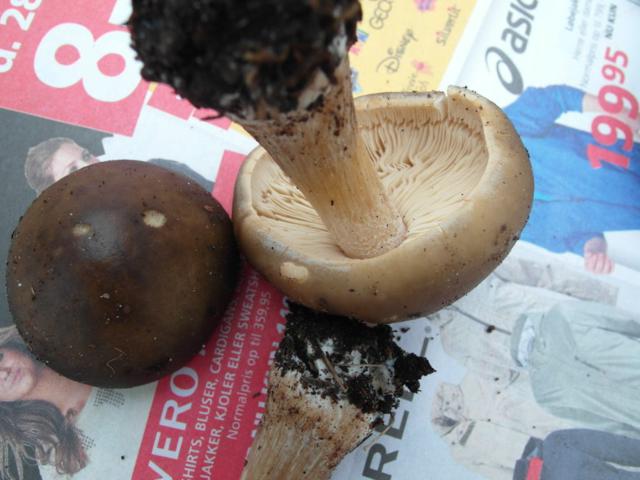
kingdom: Fungi
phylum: Basidiomycota
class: Agaricomycetes
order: Agaricales
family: Tricholomataceae
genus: Melanoleuca
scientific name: Melanoleuca cognata
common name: gyldengrå munkehat
